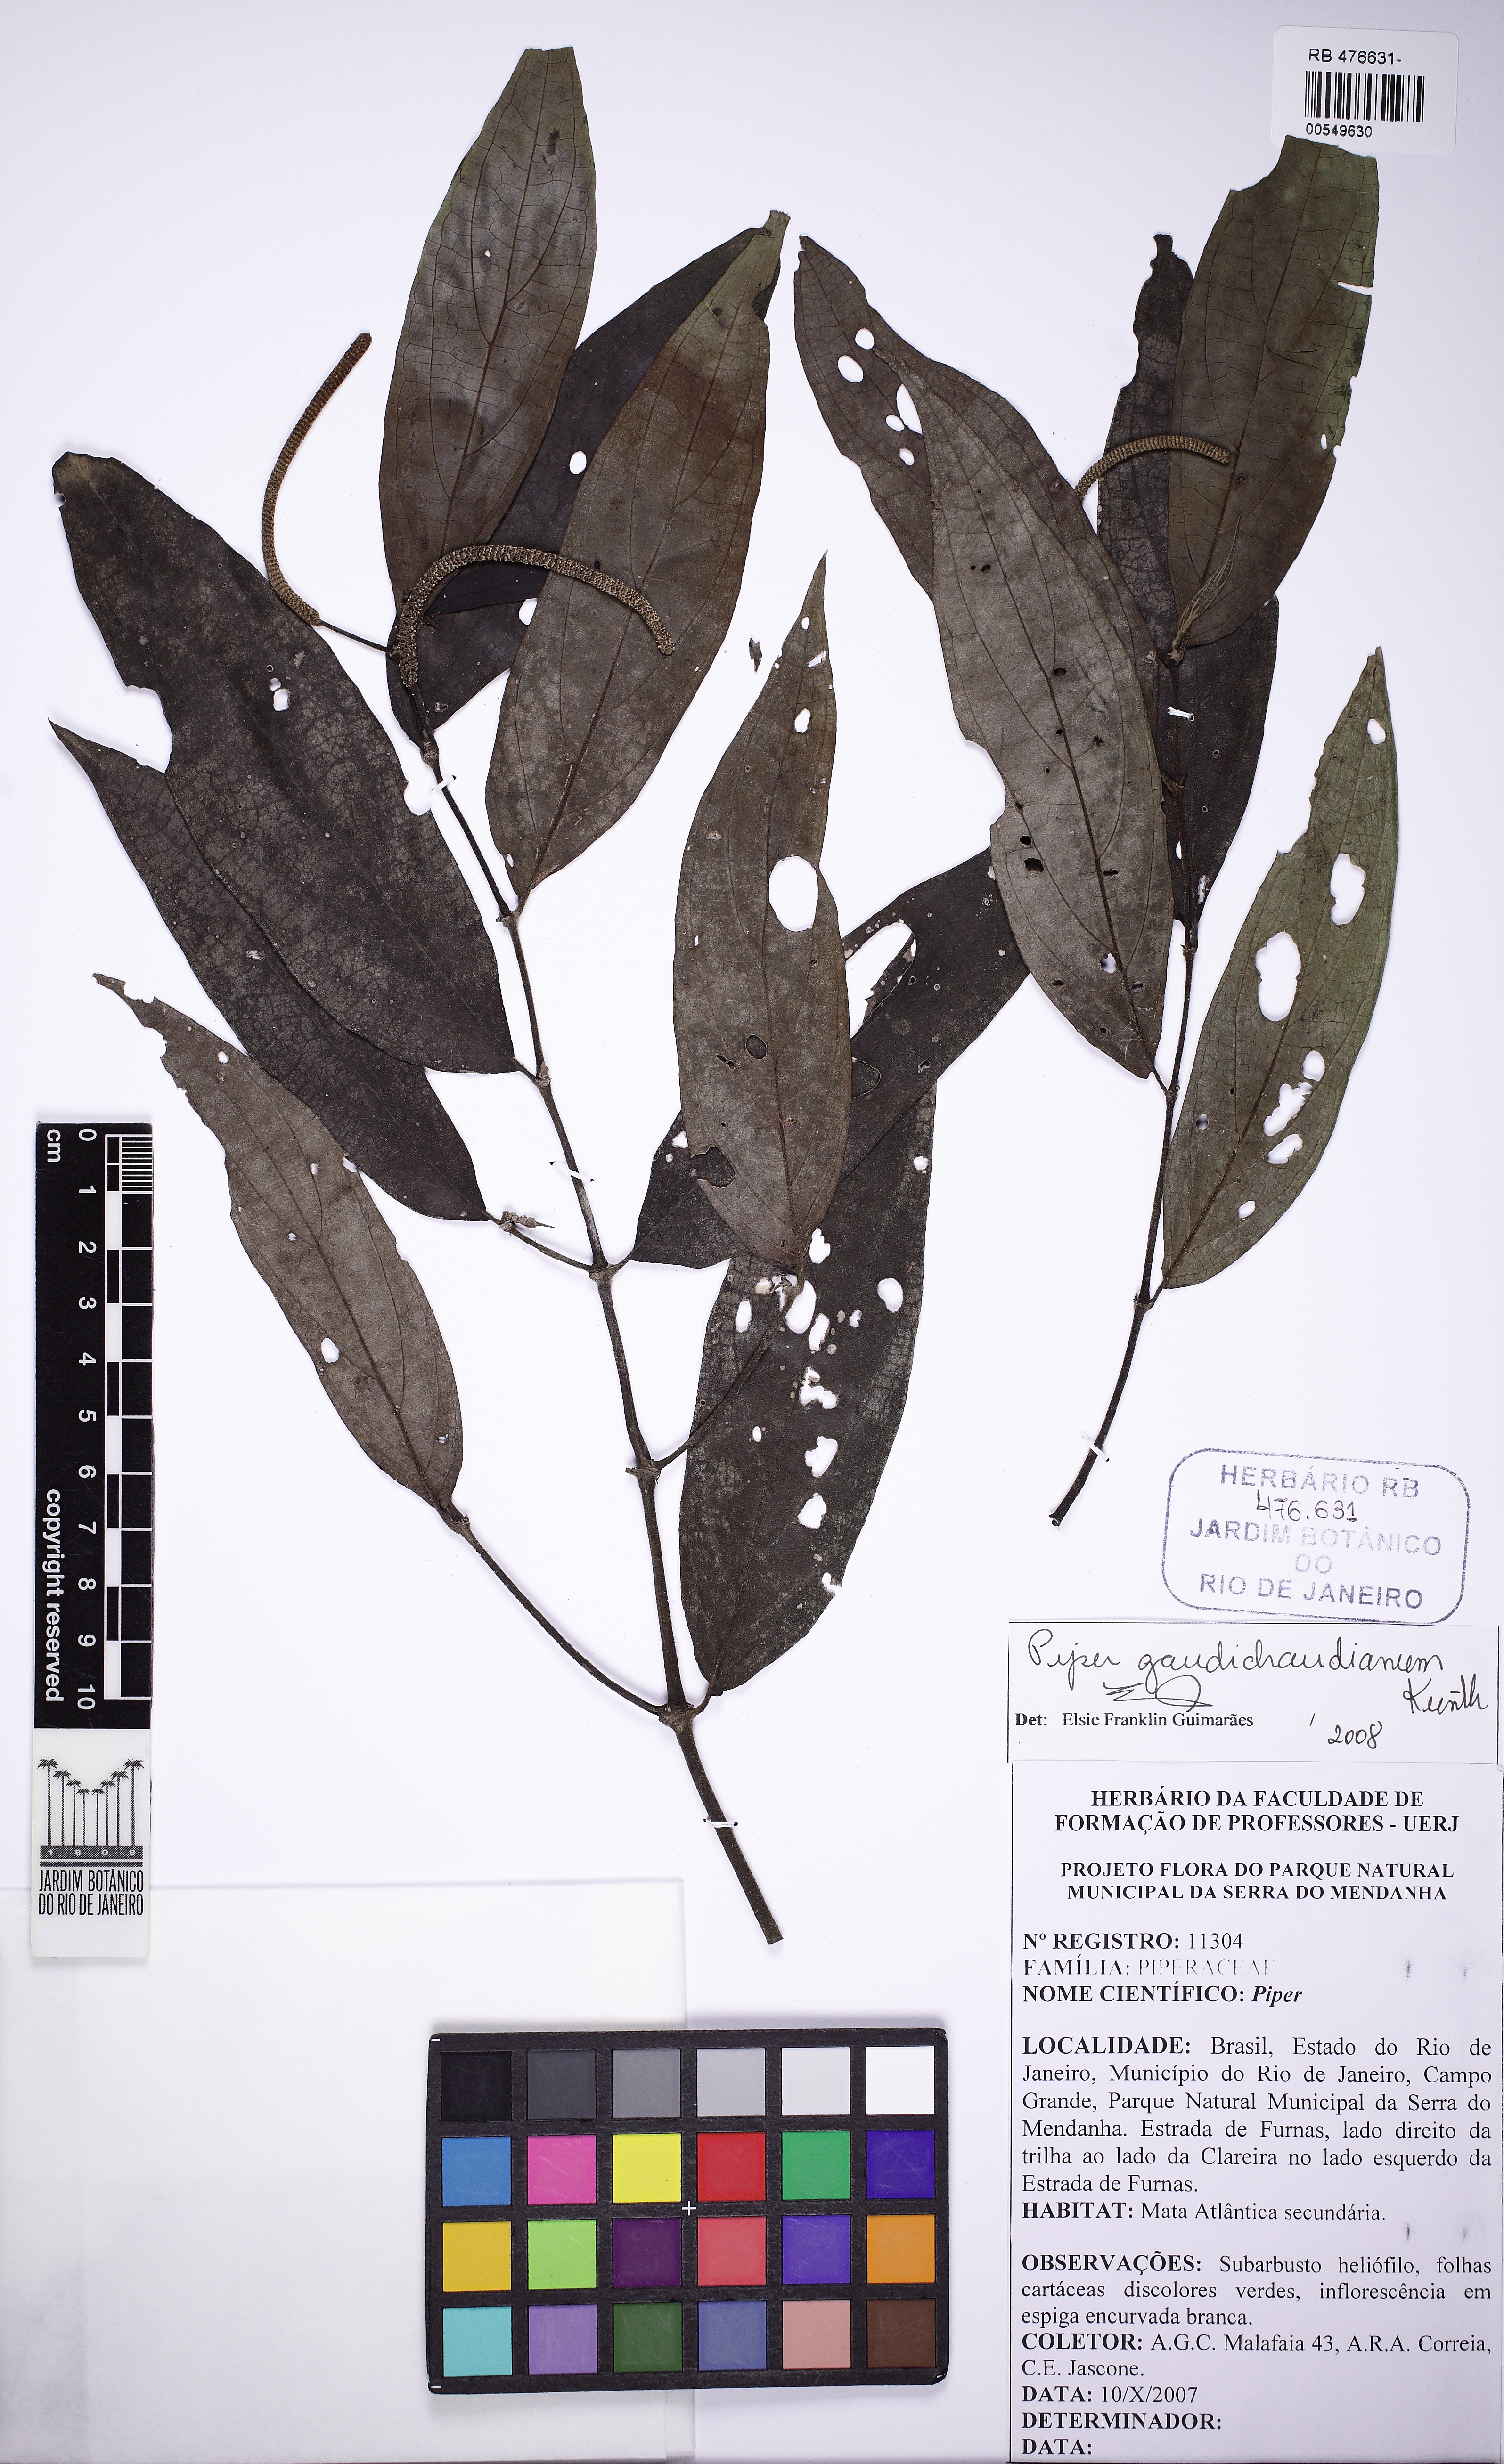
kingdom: Plantae
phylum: Tracheophyta
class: Magnoliopsida
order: Piperales
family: Piperaceae
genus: Piper
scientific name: Piper gaudichaudianum
